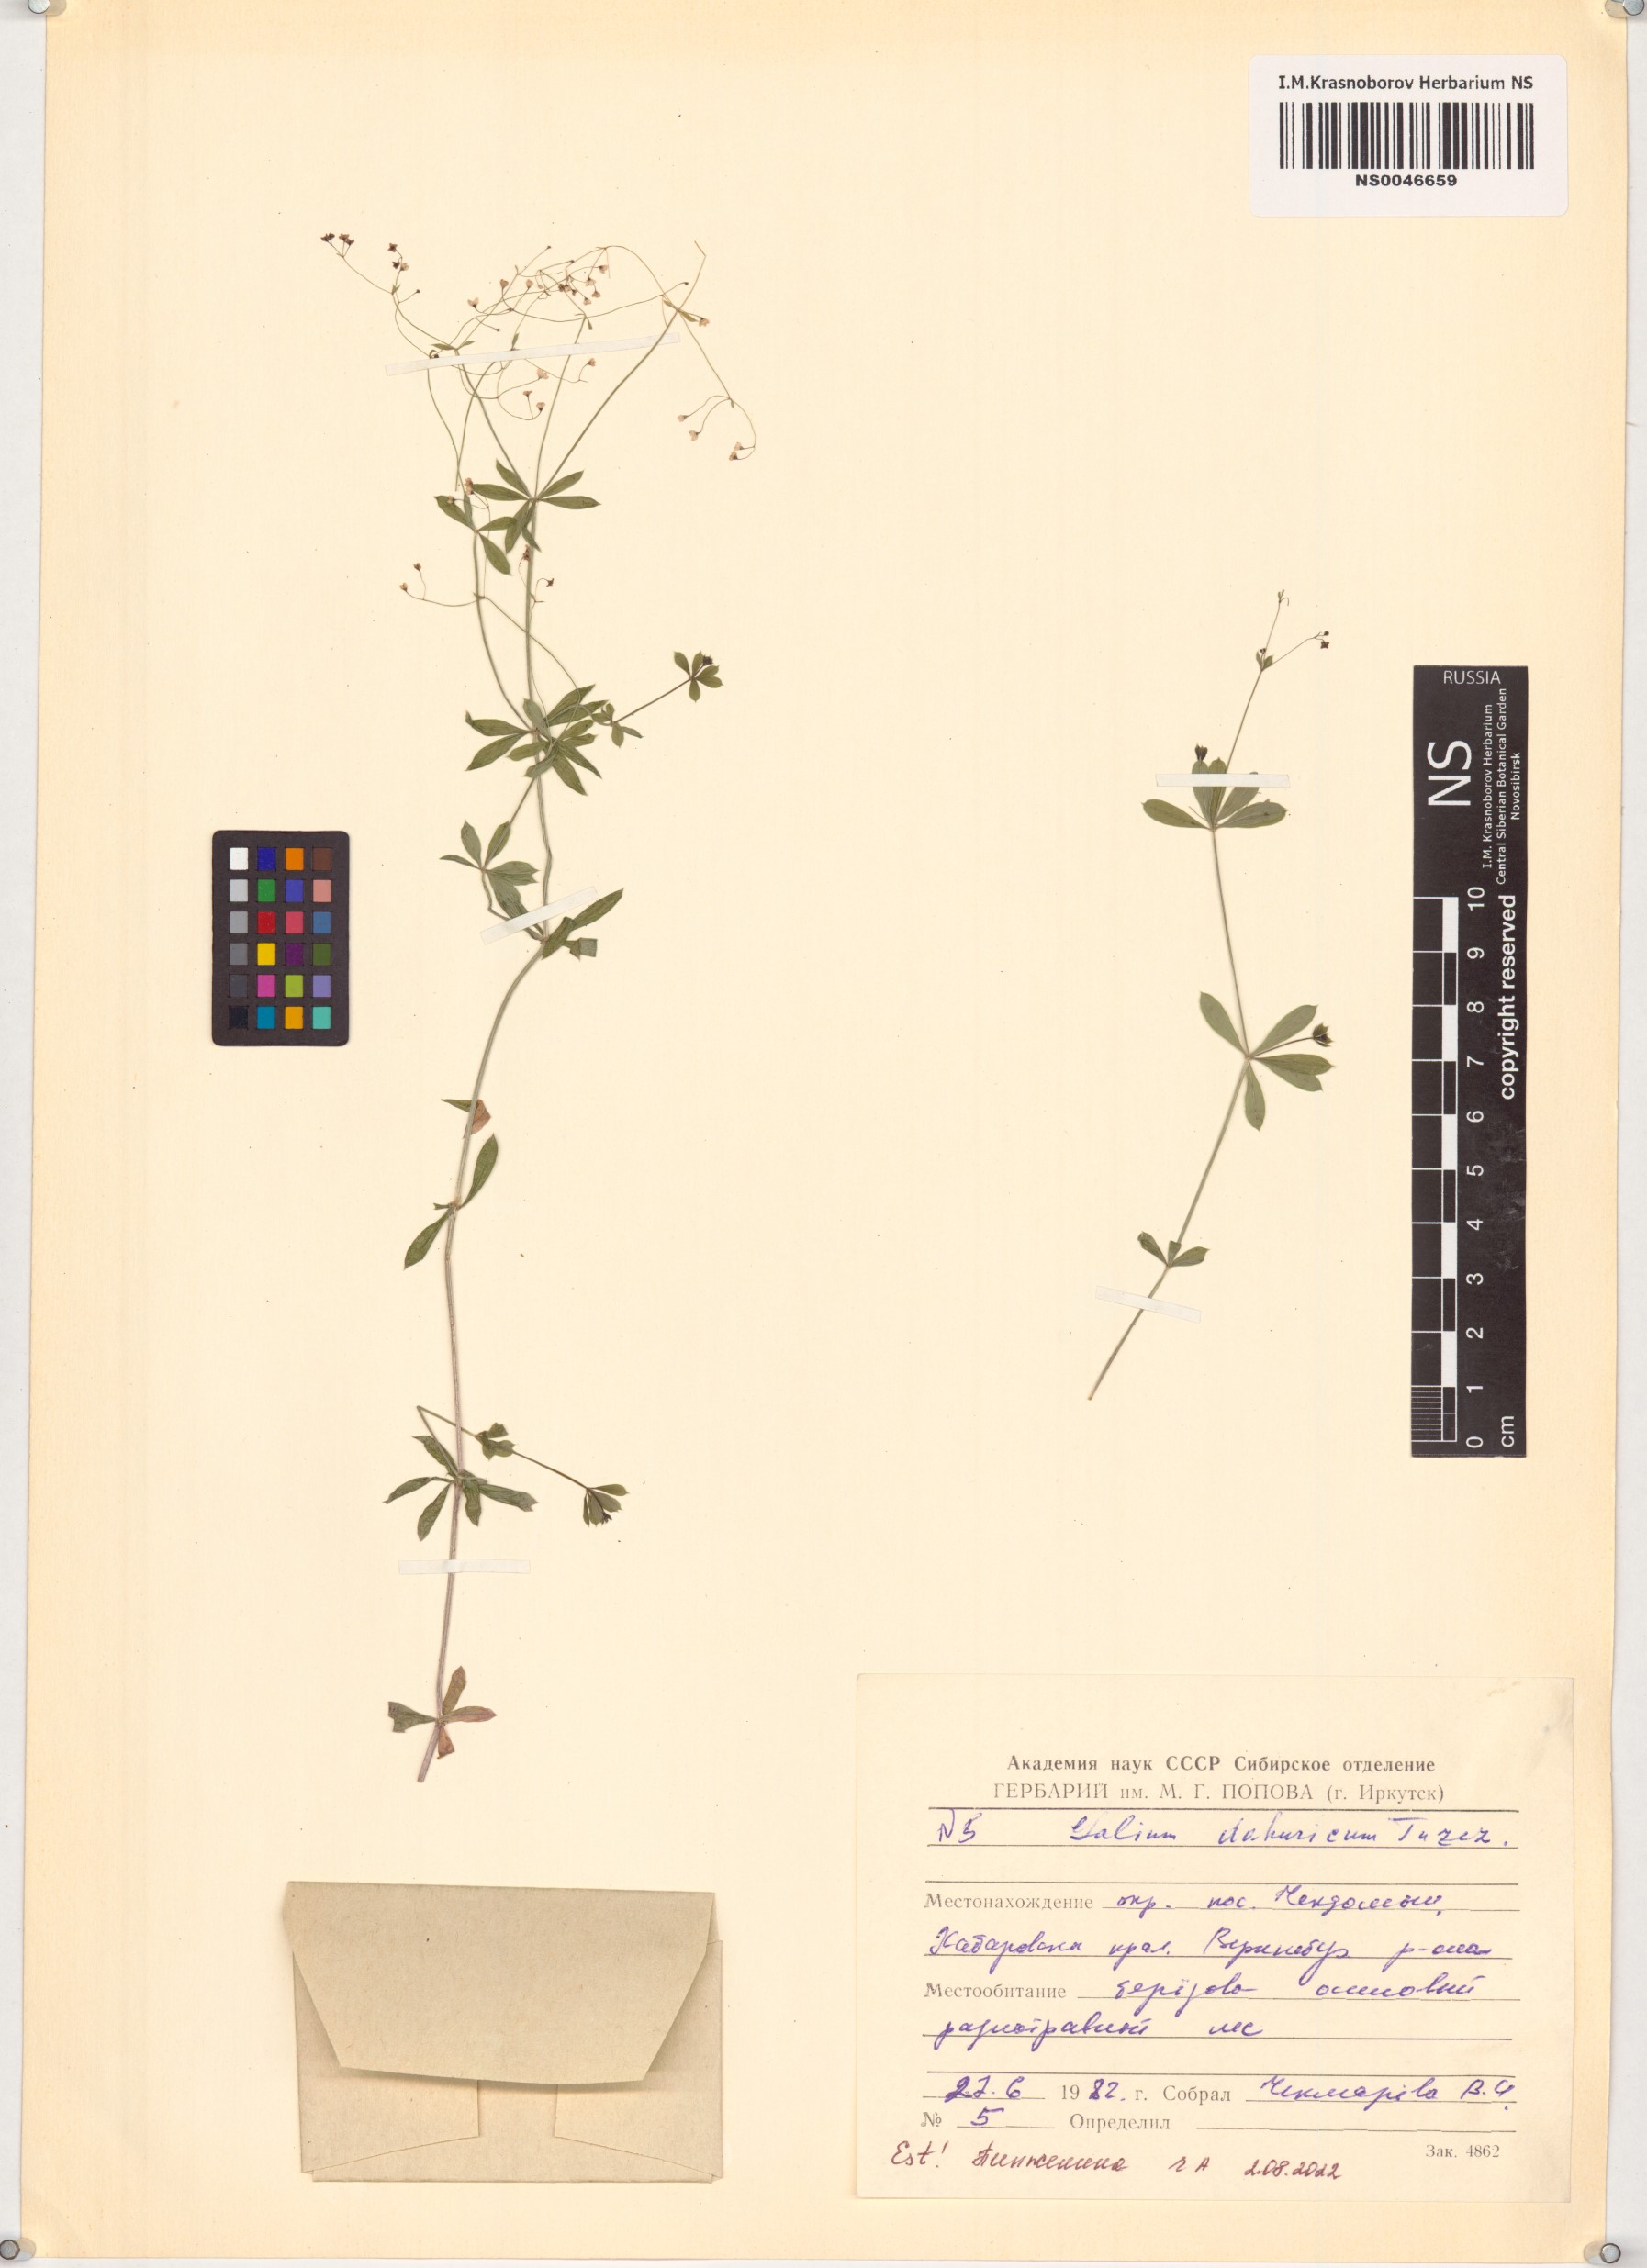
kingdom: Plantae
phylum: Tracheophyta
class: Magnoliopsida
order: Gentianales
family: Rubiaceae
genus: Galium
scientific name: Galium dahuricum
